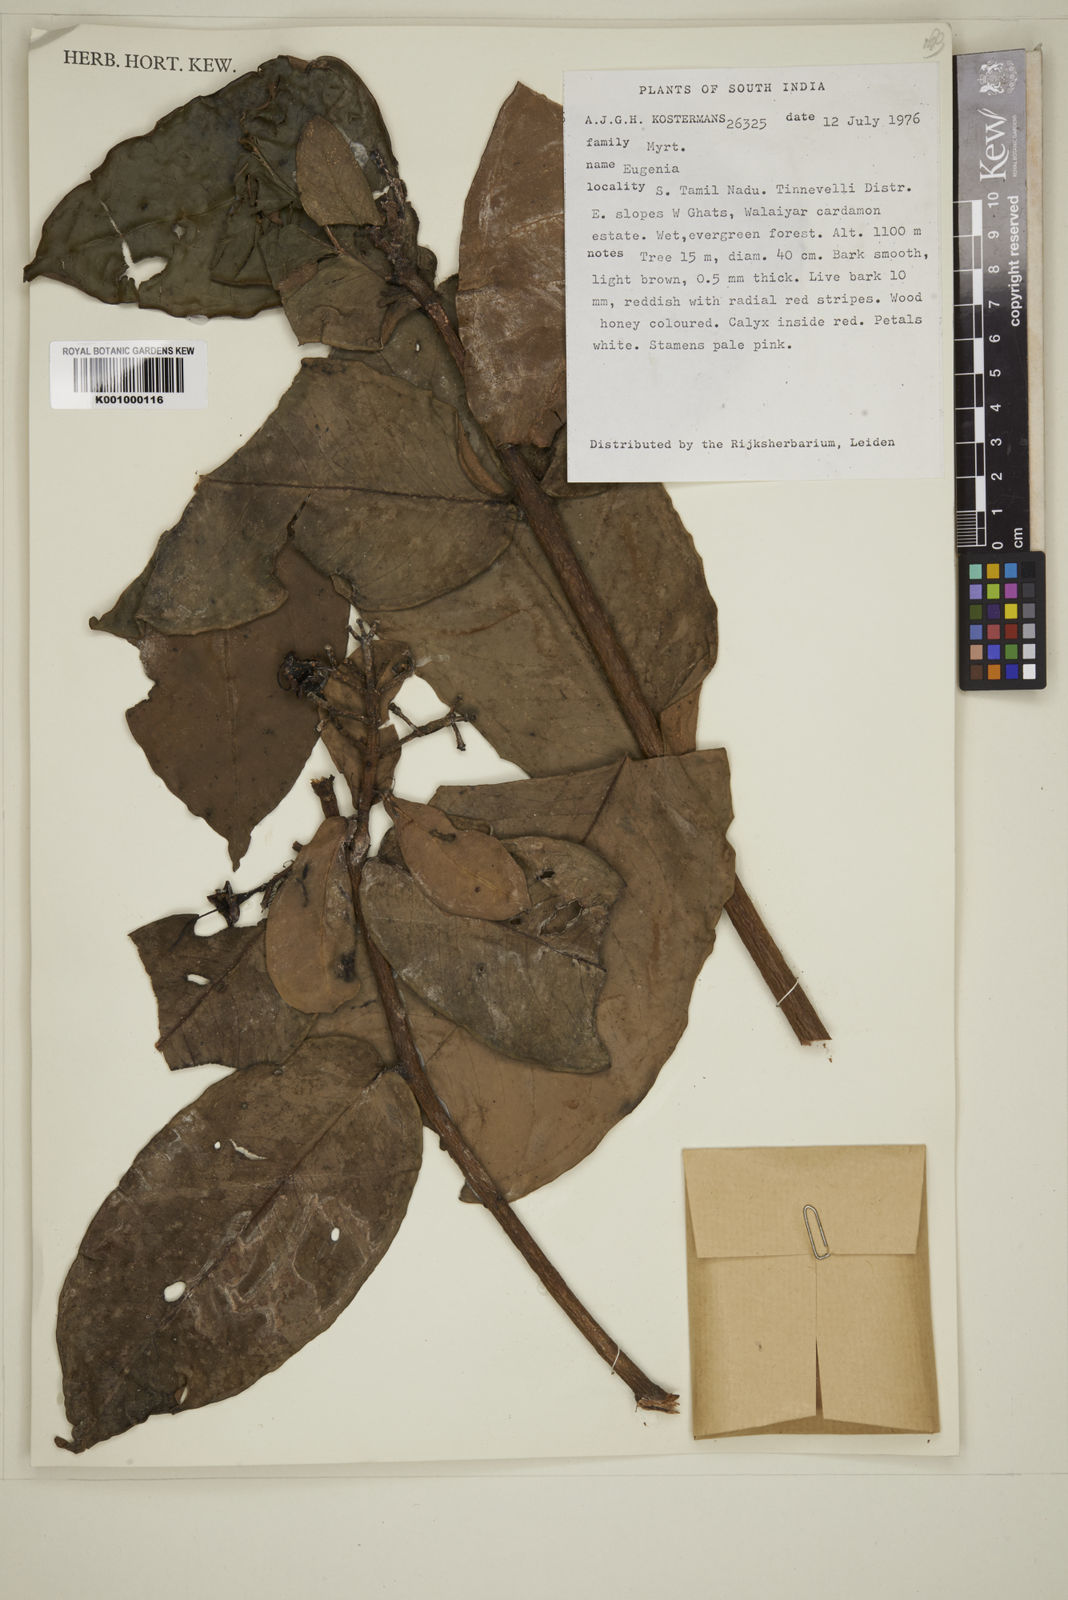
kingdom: Plantae
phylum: Tracheophyta
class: Magnoliopsida
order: Myrtales
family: Myrtaceae
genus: Eugenia
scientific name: Eugenia
